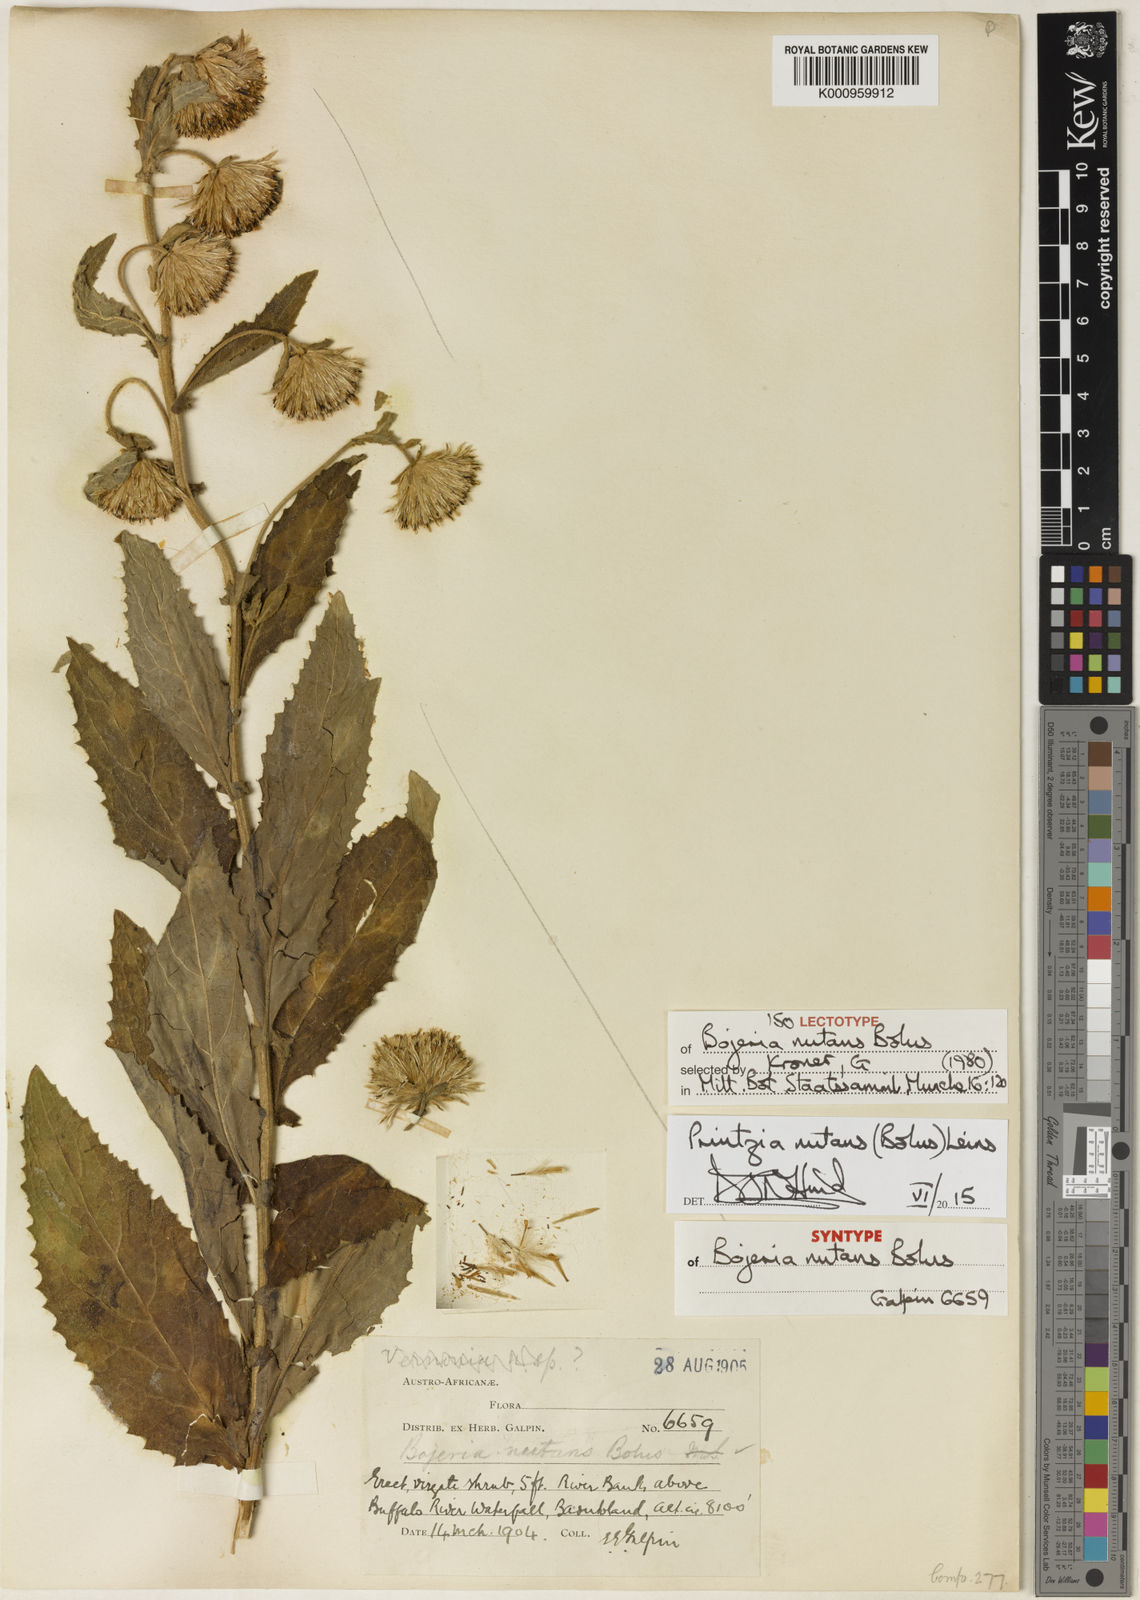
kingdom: Plantae
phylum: Tracheophyta
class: Magnoliopsida
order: Asterales
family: Asteraceae
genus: Printzia
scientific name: Printzia nutans
